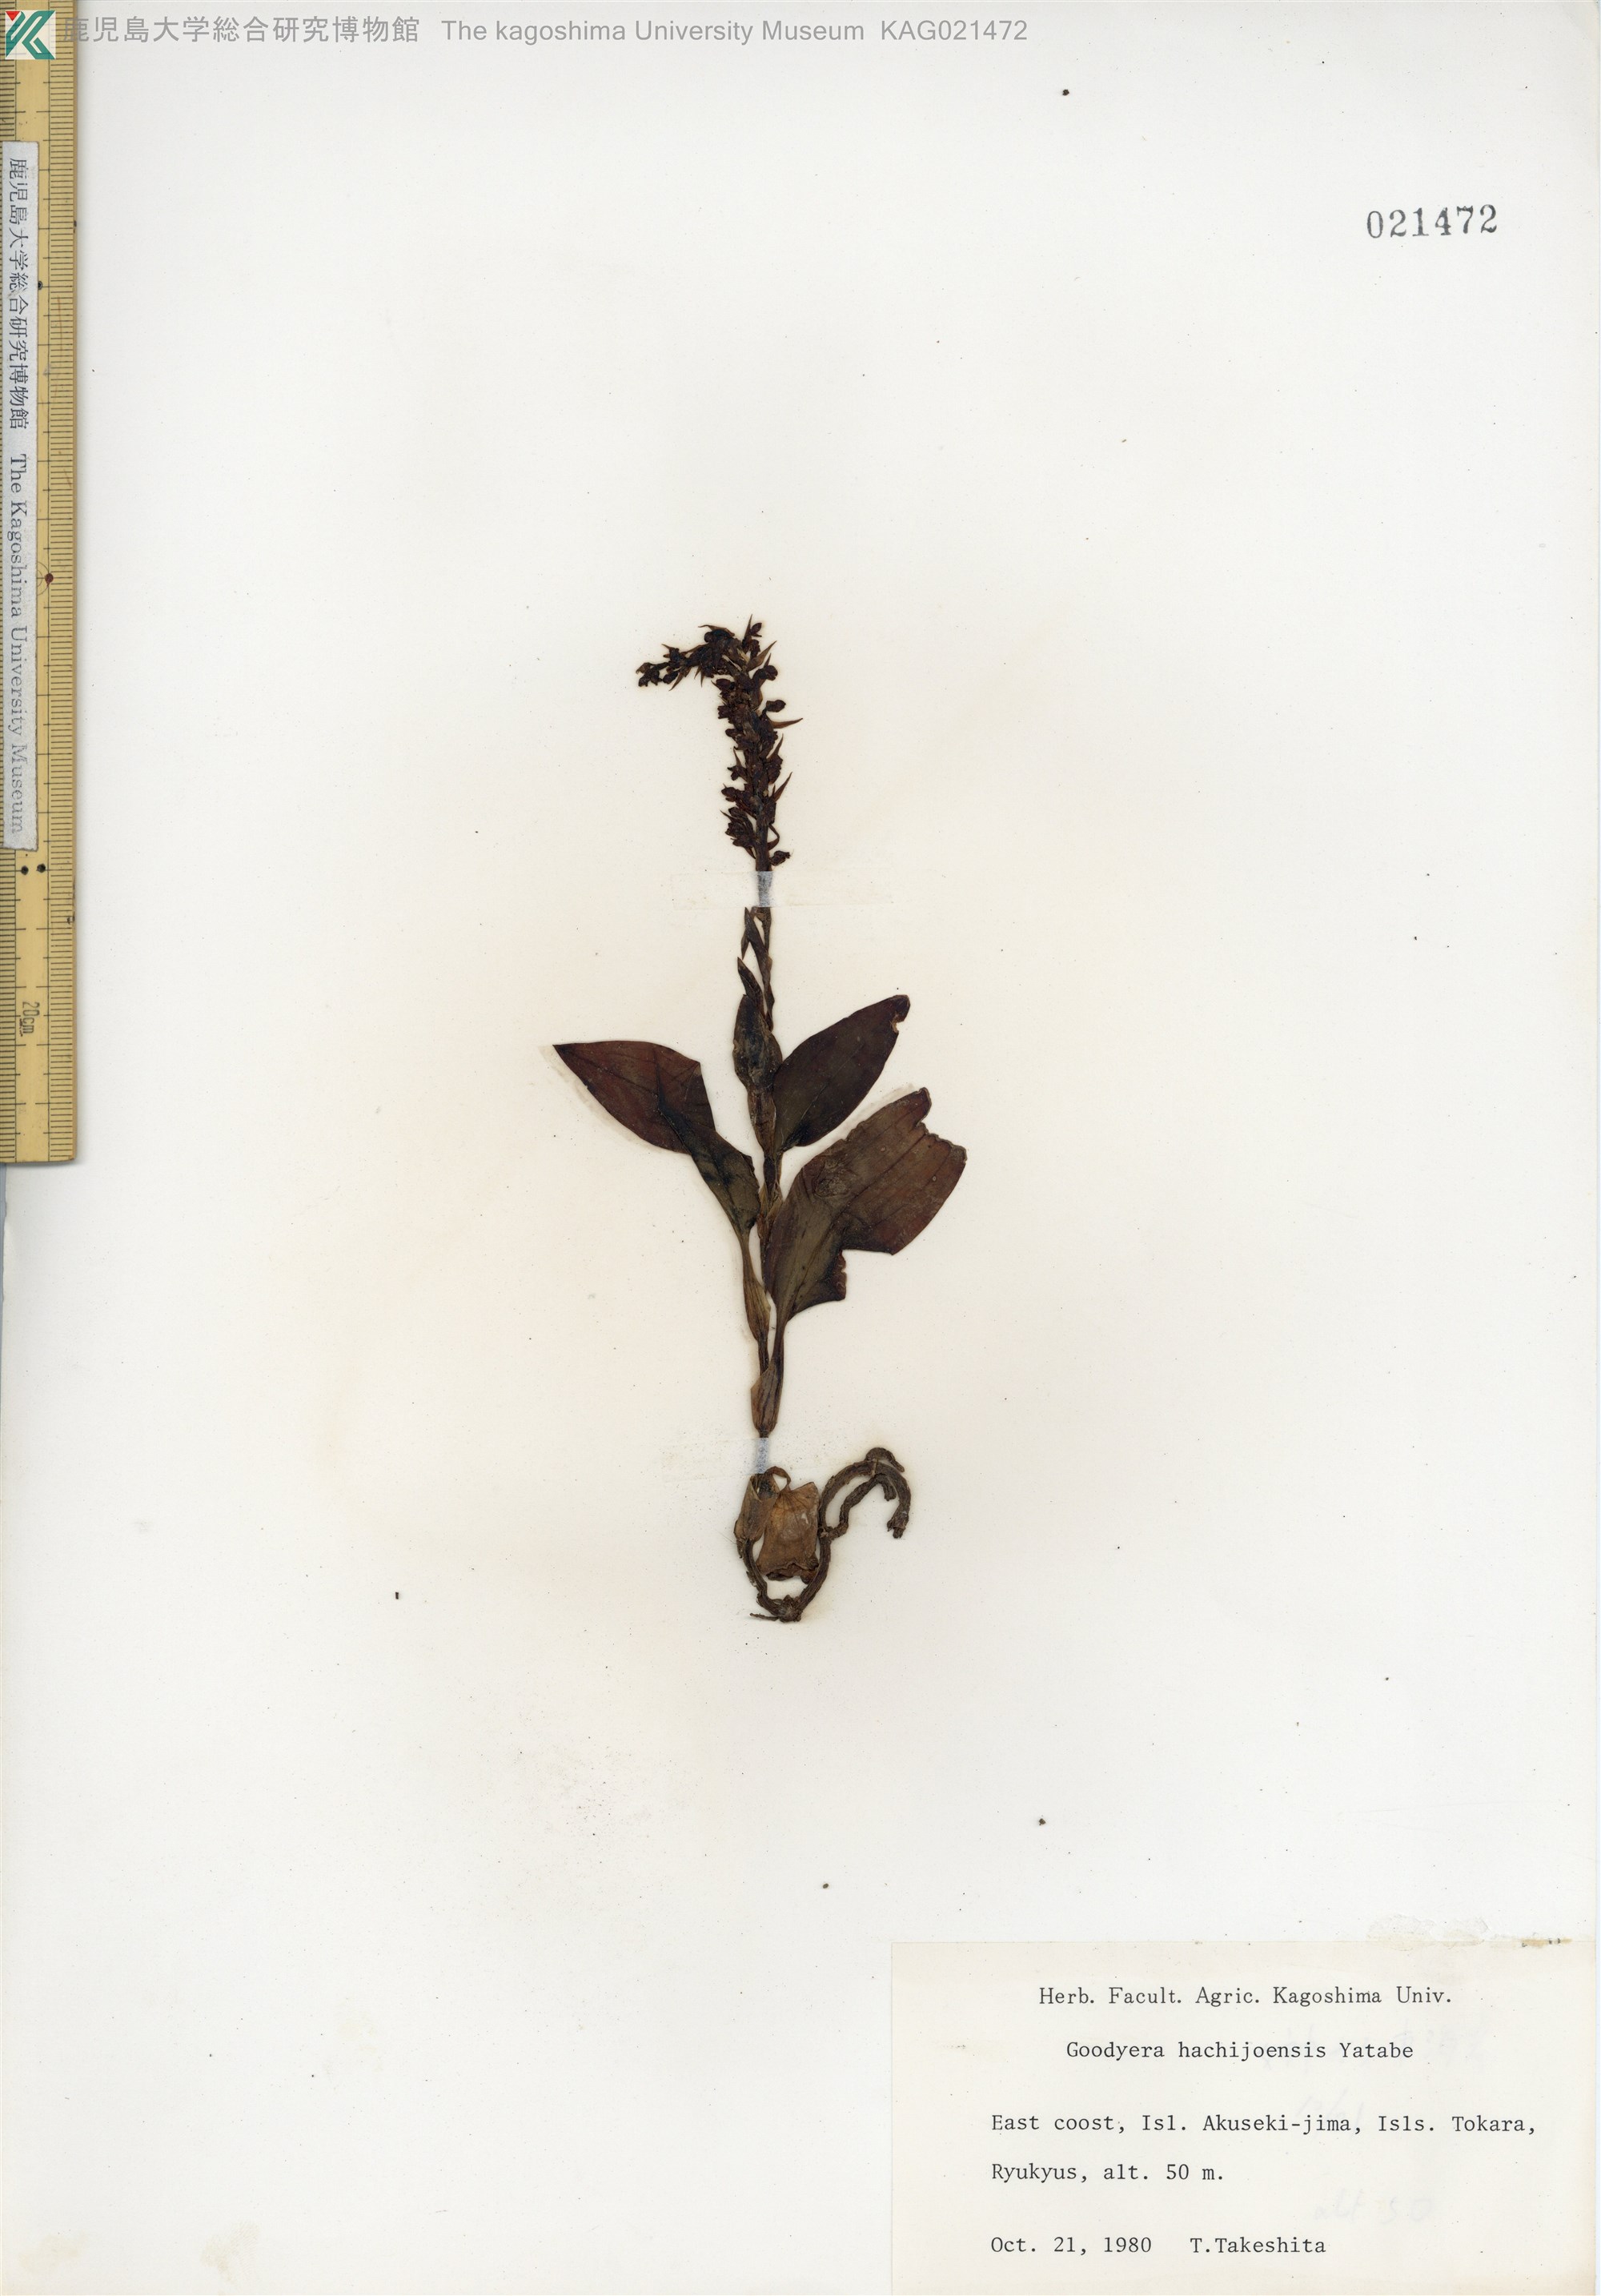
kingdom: Plantae
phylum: Tracheophyta
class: Liliopsida
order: Asparagales
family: Orchidaceae
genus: Goodyera
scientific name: Goodyera hachijoensis
